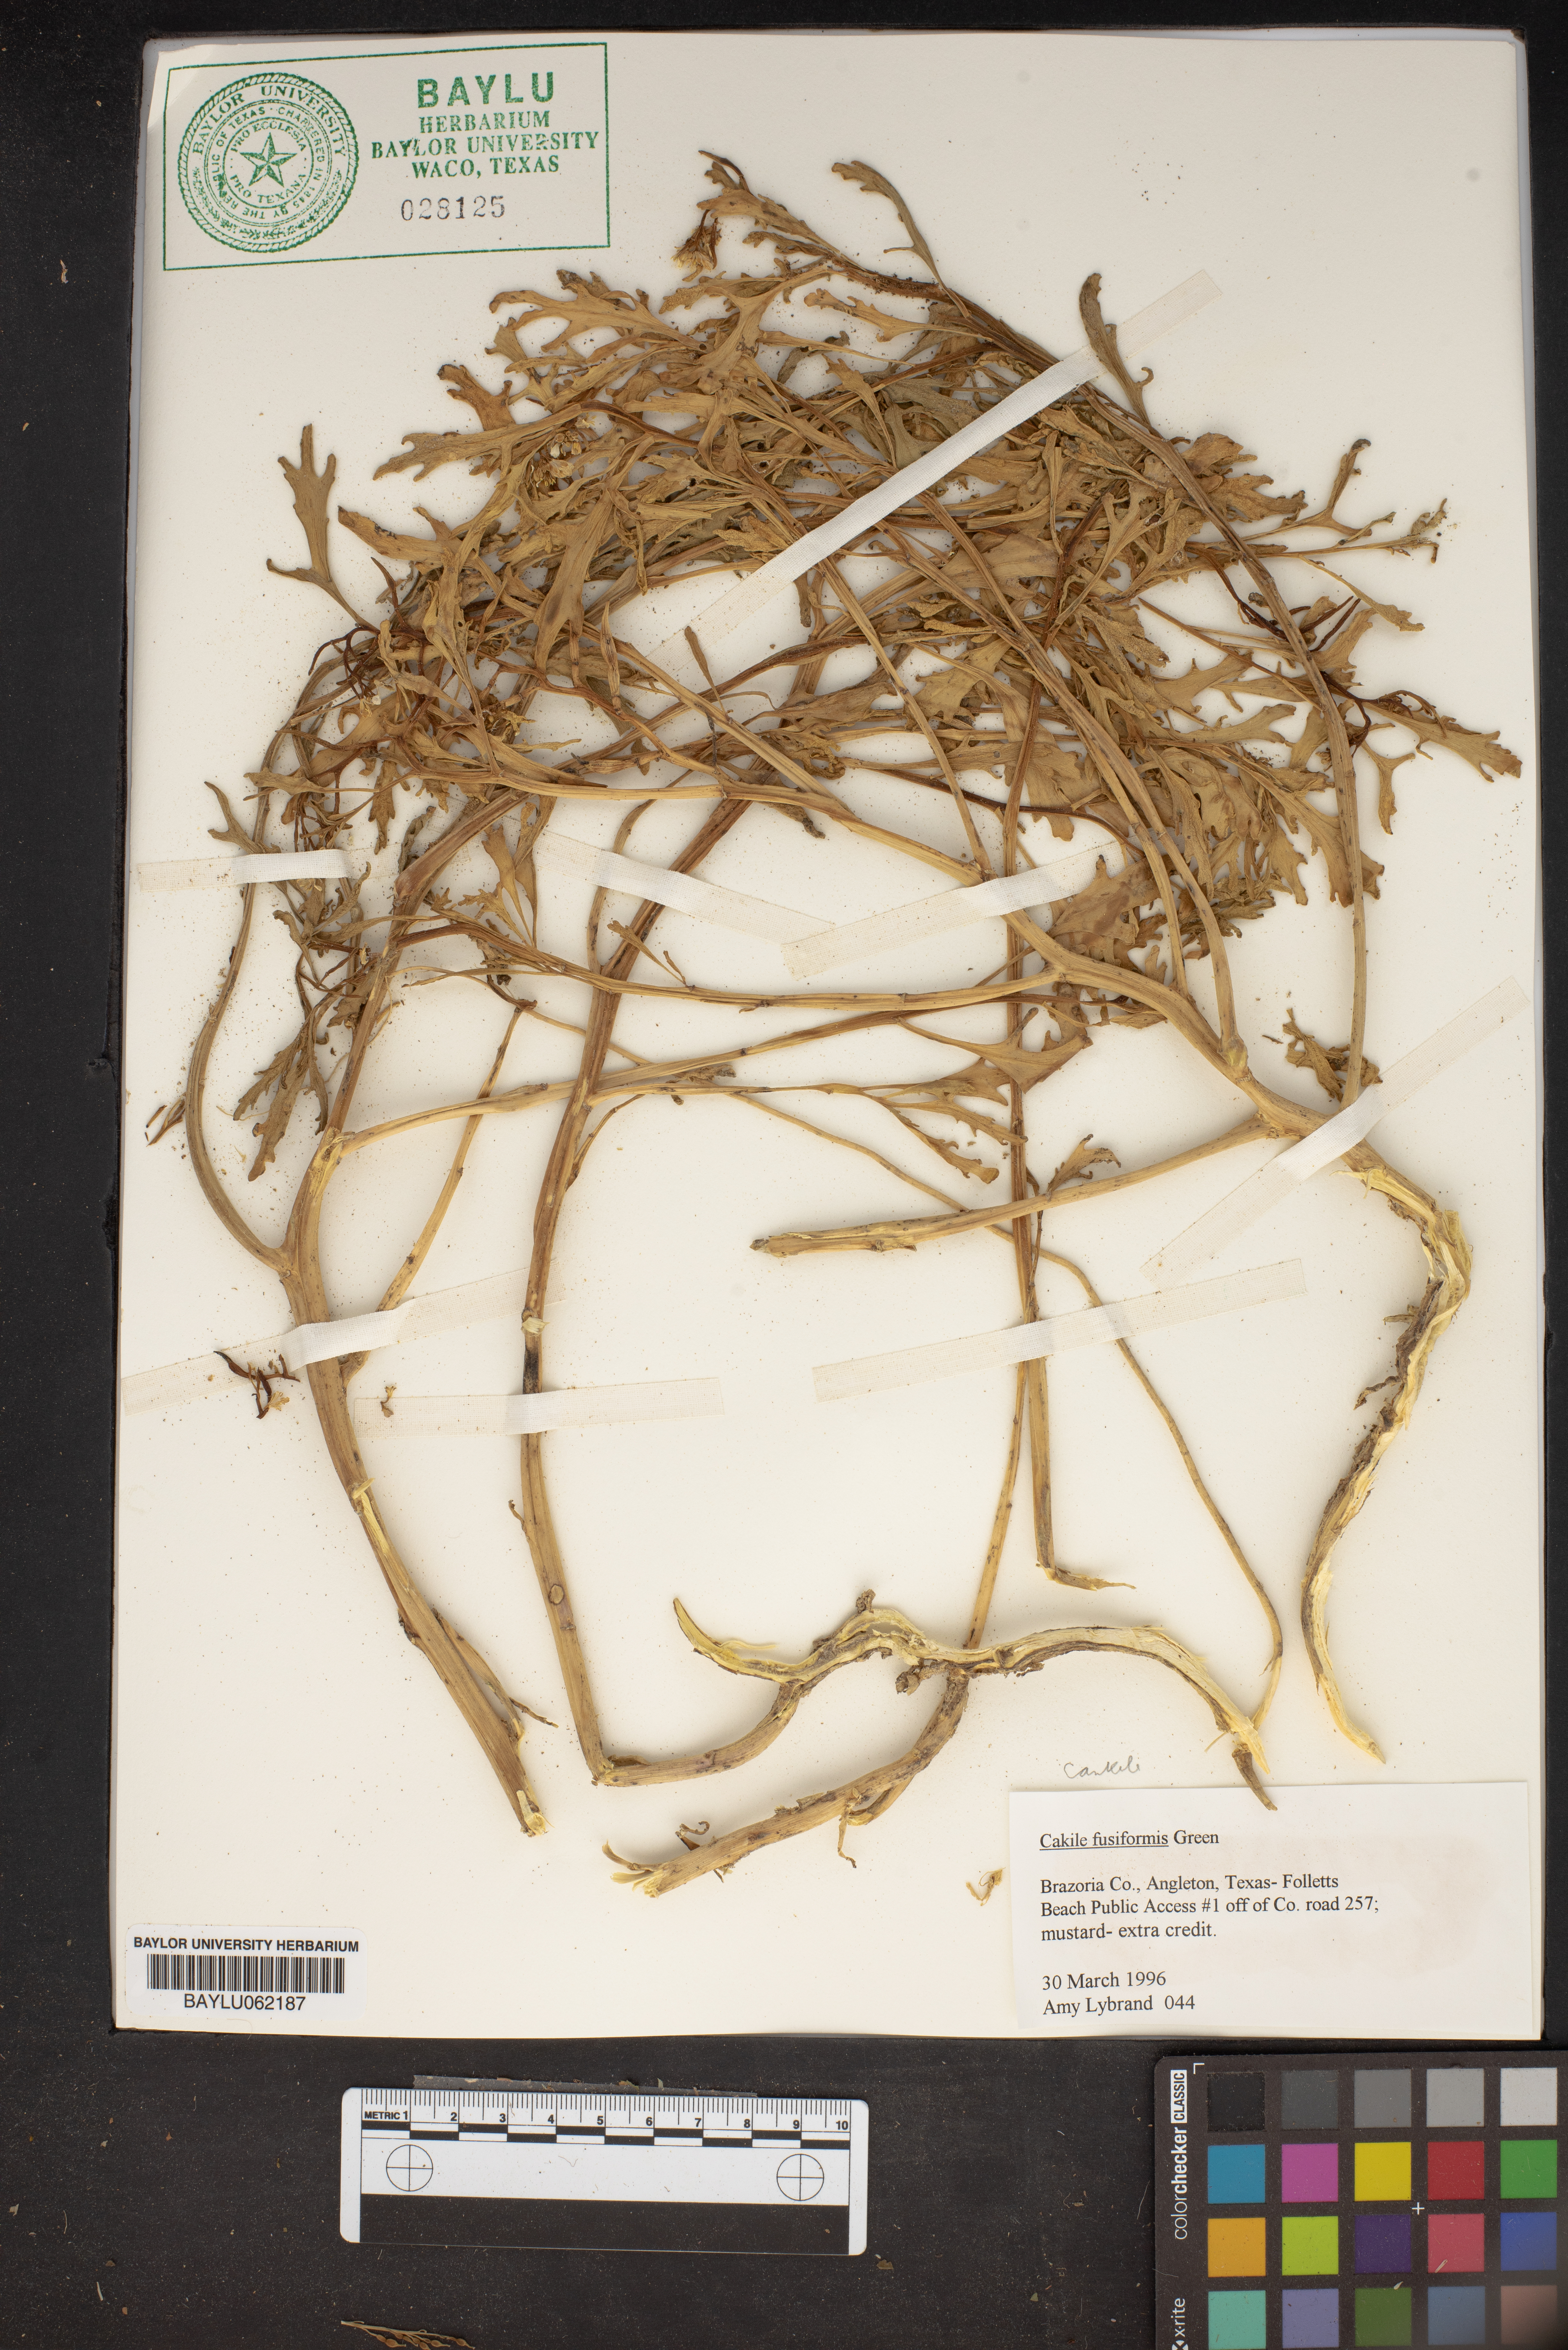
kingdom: Plantae
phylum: Tracheophyta
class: Magnoliopsida
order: Brassicales
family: Brassicaceae
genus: Cakile
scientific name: Cakile lanceolata
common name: Sea rocket
